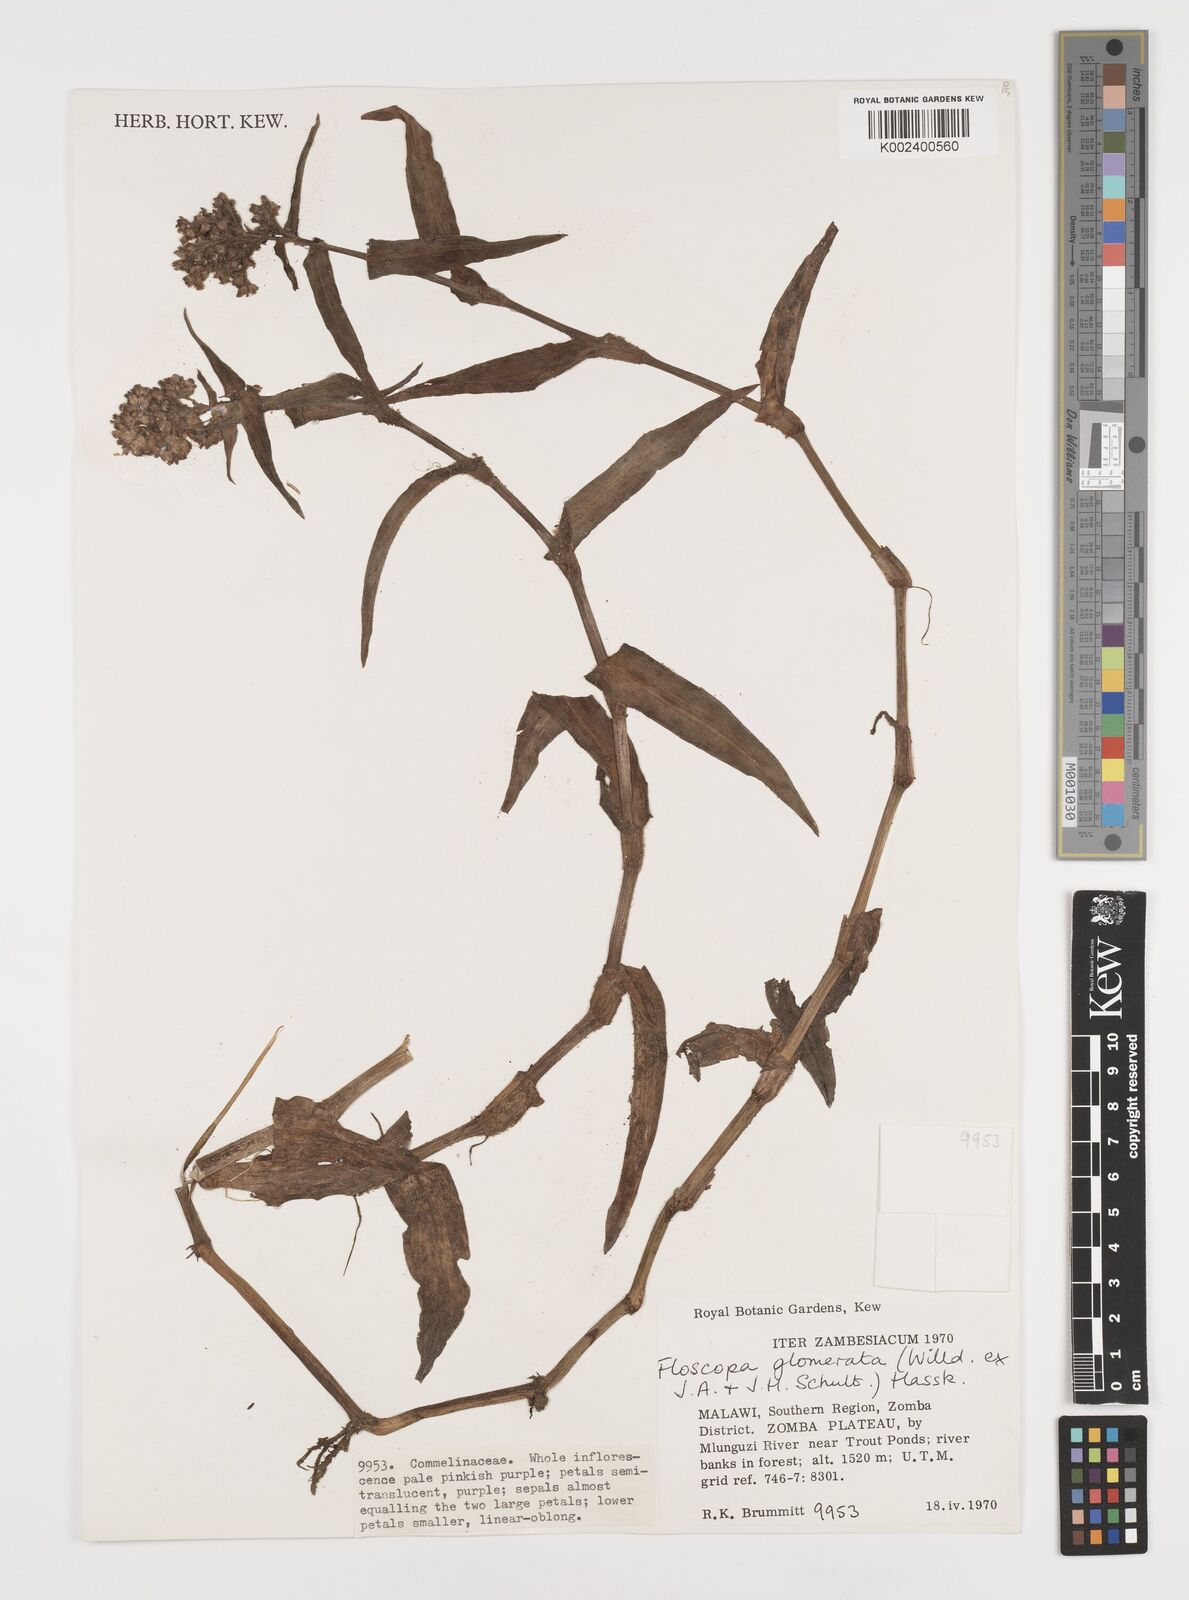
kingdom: Plantae
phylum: Tracheophyta
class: Liliopsida
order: Commelinales
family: Commelinaceae
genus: Floscopa
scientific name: Floscopa glomerata
